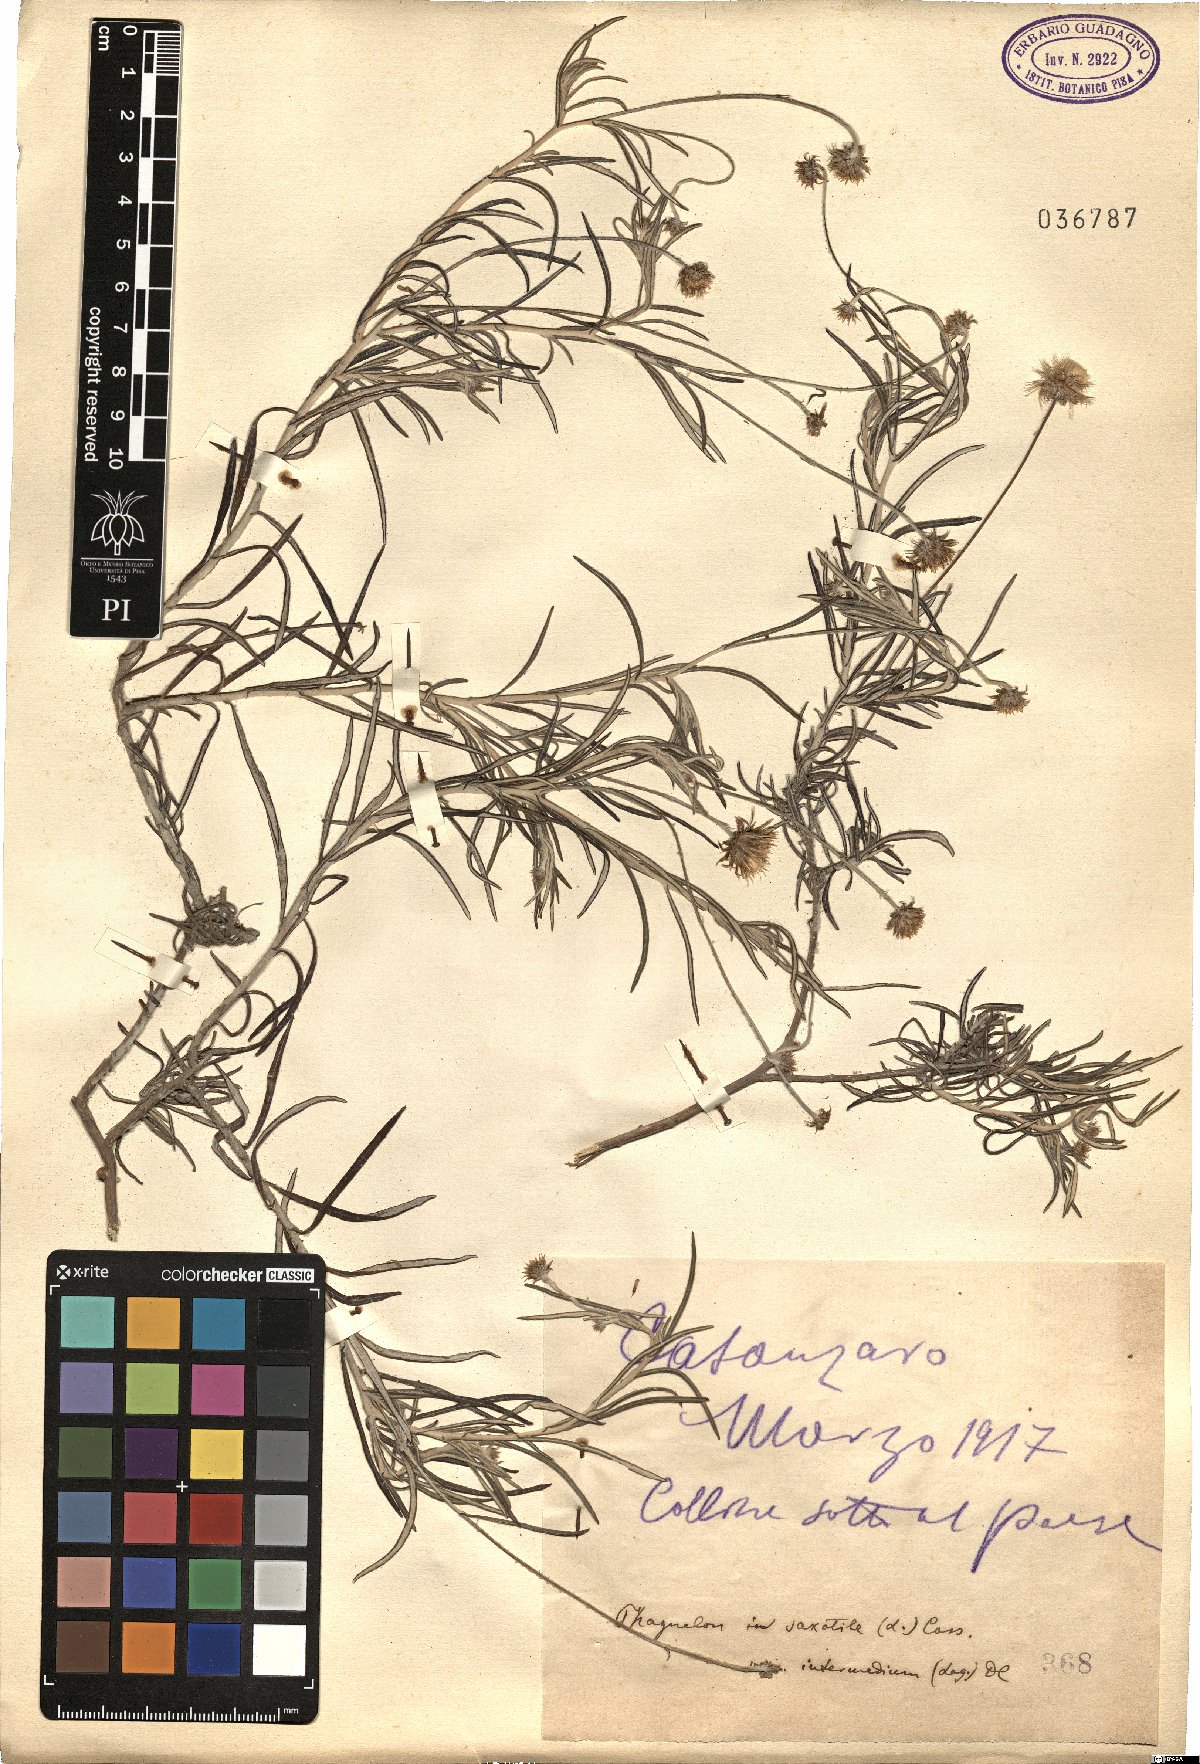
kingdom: Plantae
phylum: Tracheophyta
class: Magnoliopsida
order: Asterales
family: Asteraceae
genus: Phagnalon
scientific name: Phagnalon saxatile
